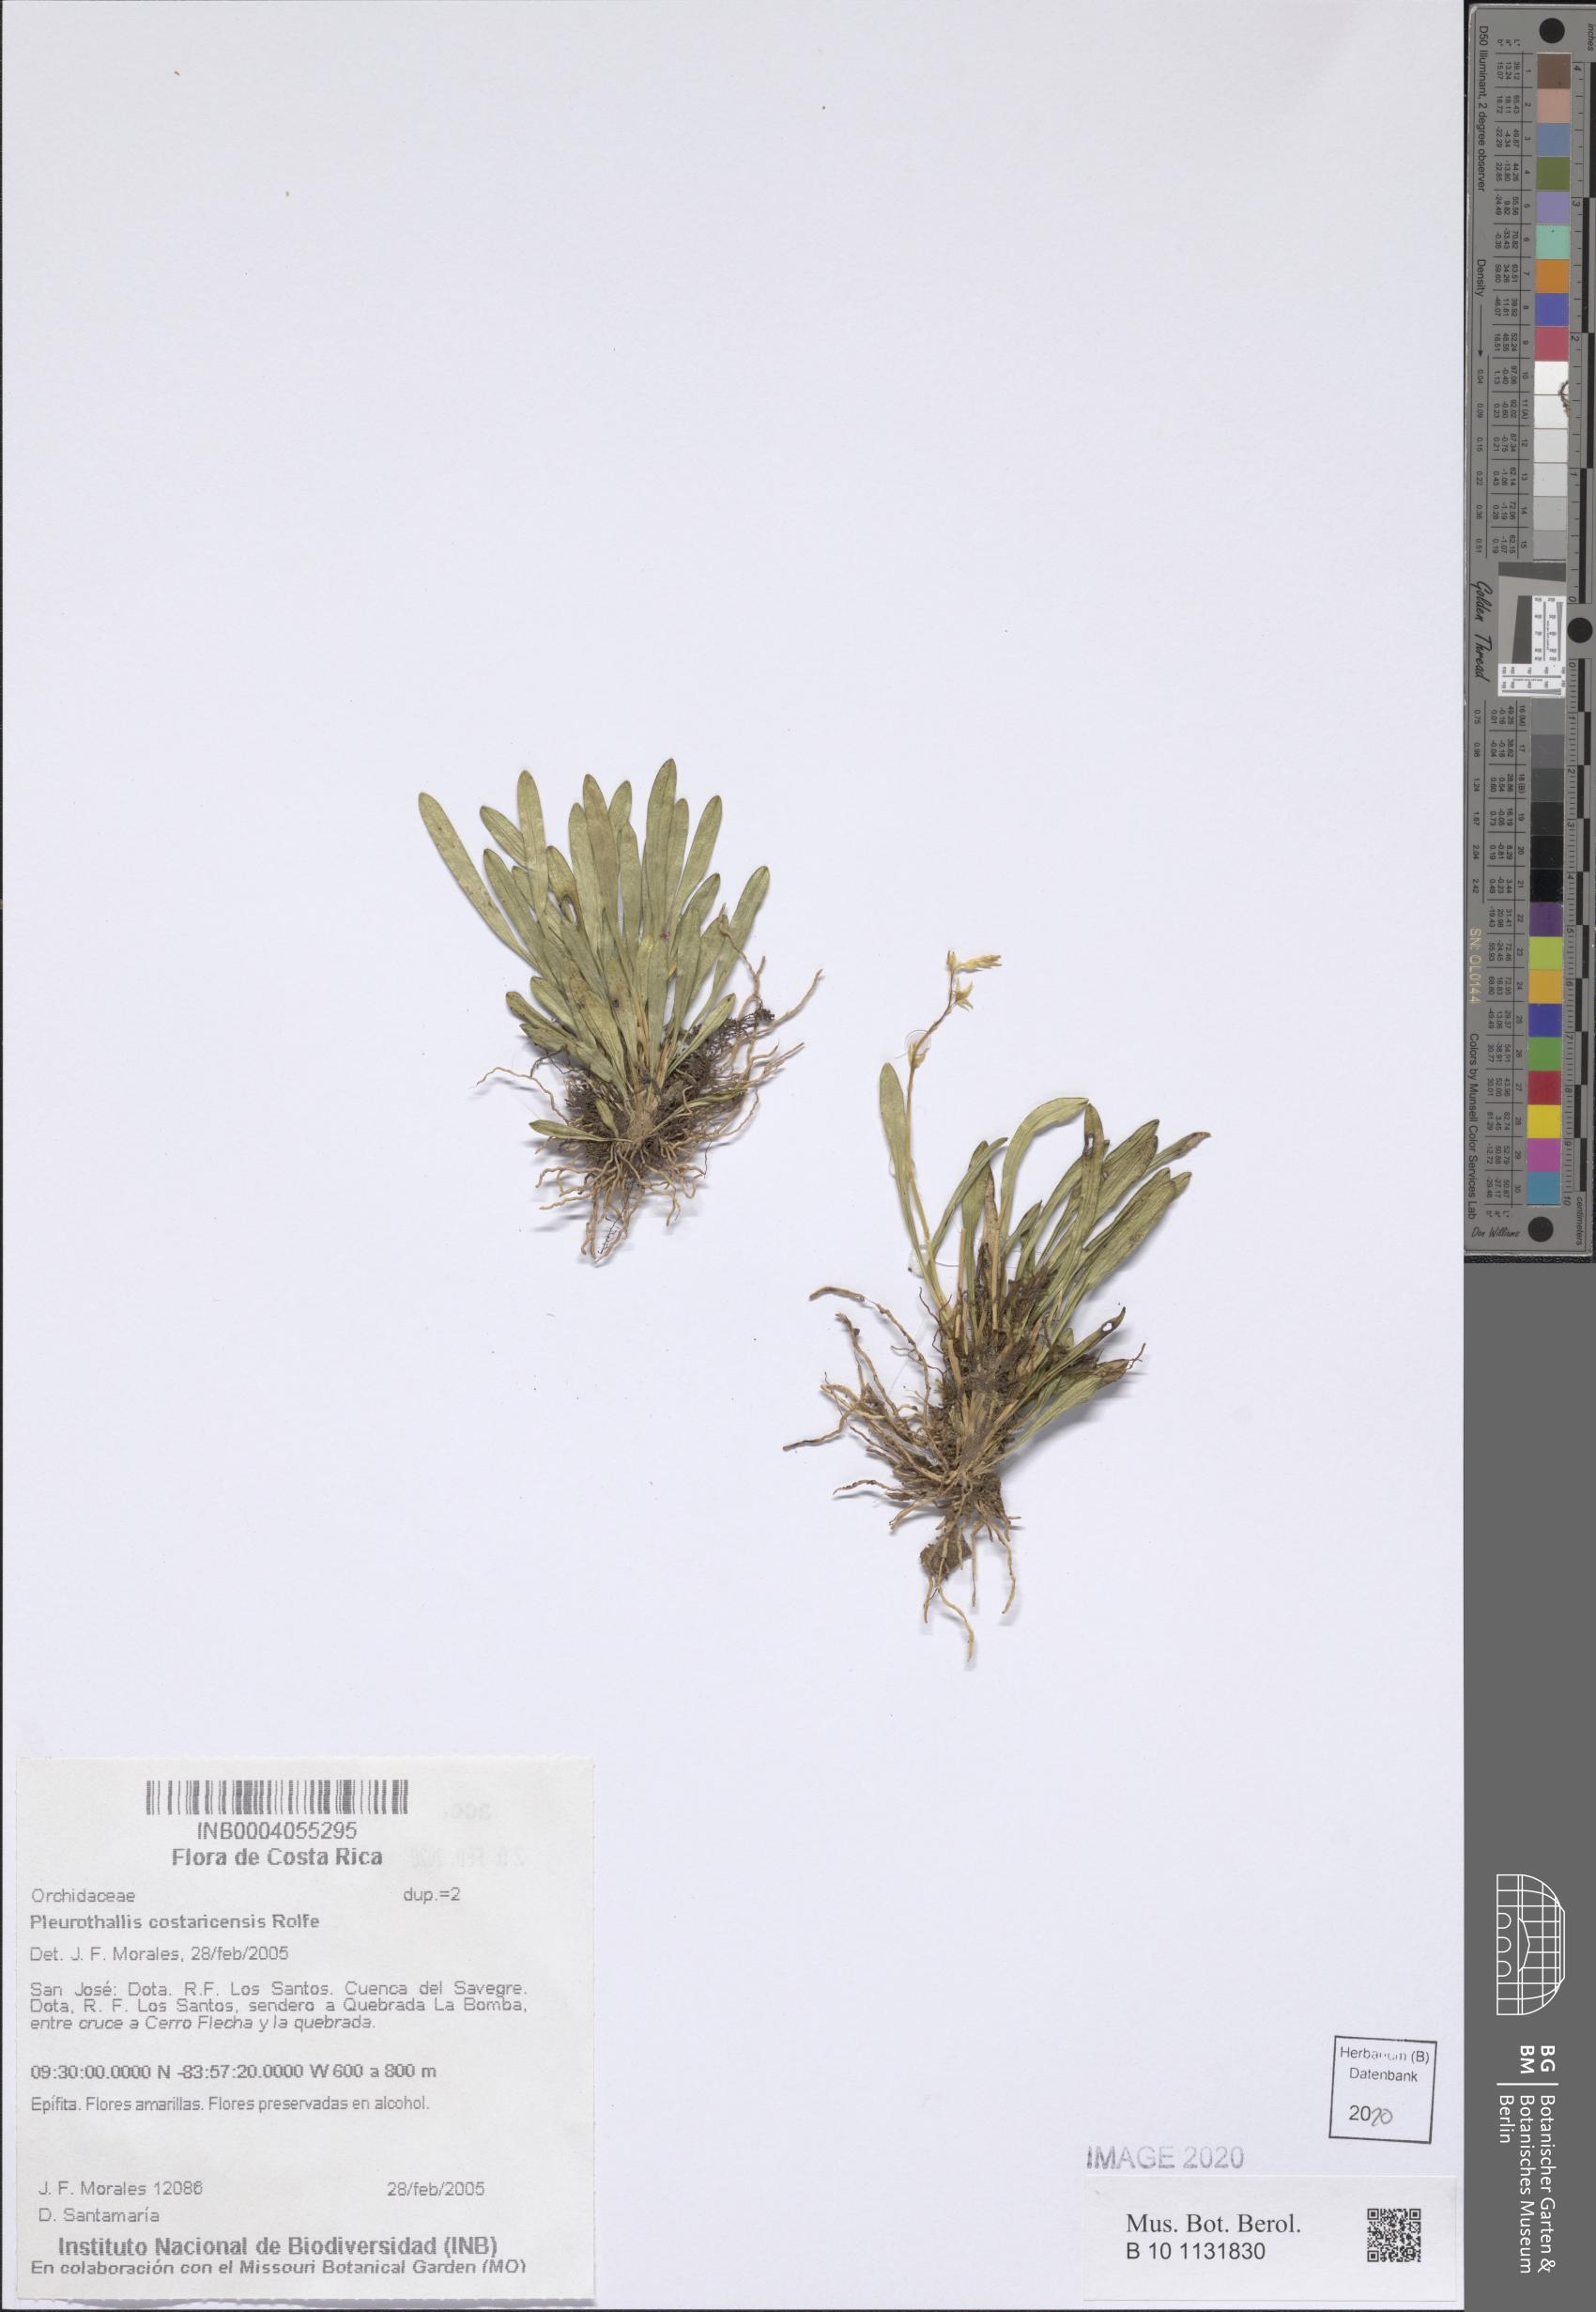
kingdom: Plantae
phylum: Tracheophyta
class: Liliopsida
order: Asparagales
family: Orchidaceae
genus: Specklinia
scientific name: Specklinia costaricensis
